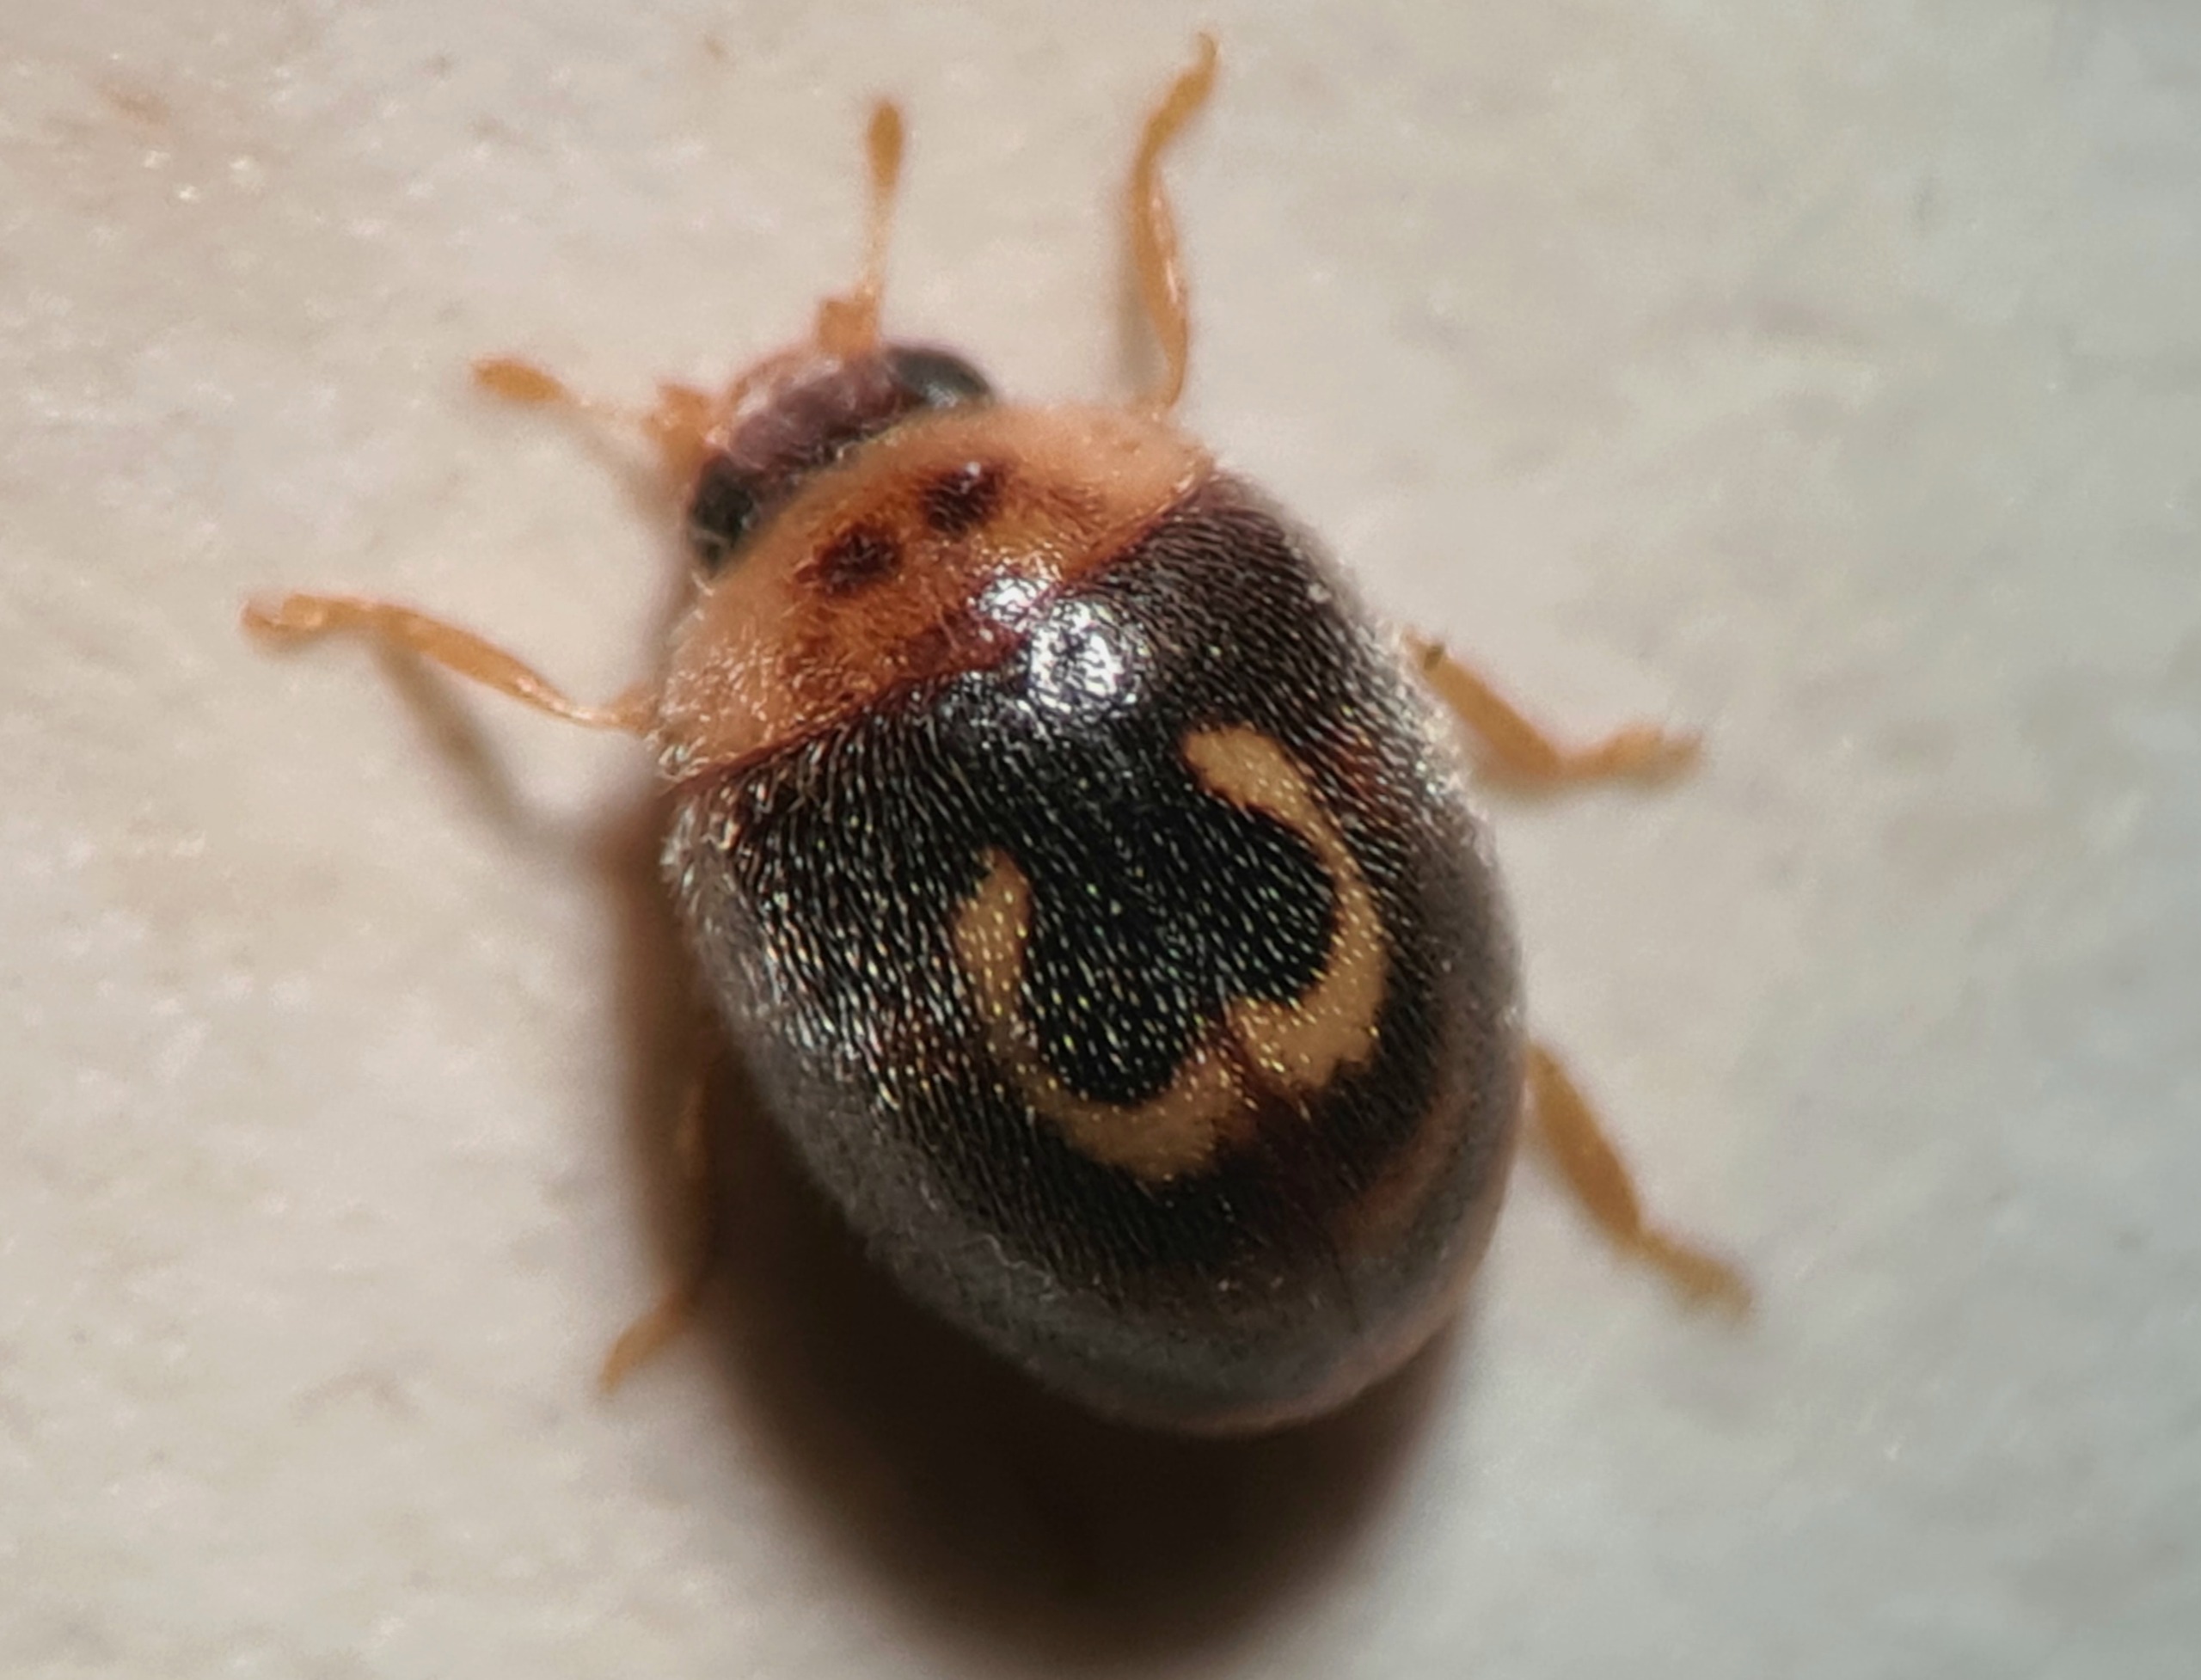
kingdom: Animalia
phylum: Arthropoda
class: Insecta
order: Coleoptera
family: Coccinellidae
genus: Clitostethus
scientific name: Clitostethus arcuatus
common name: Omegamariehøne
